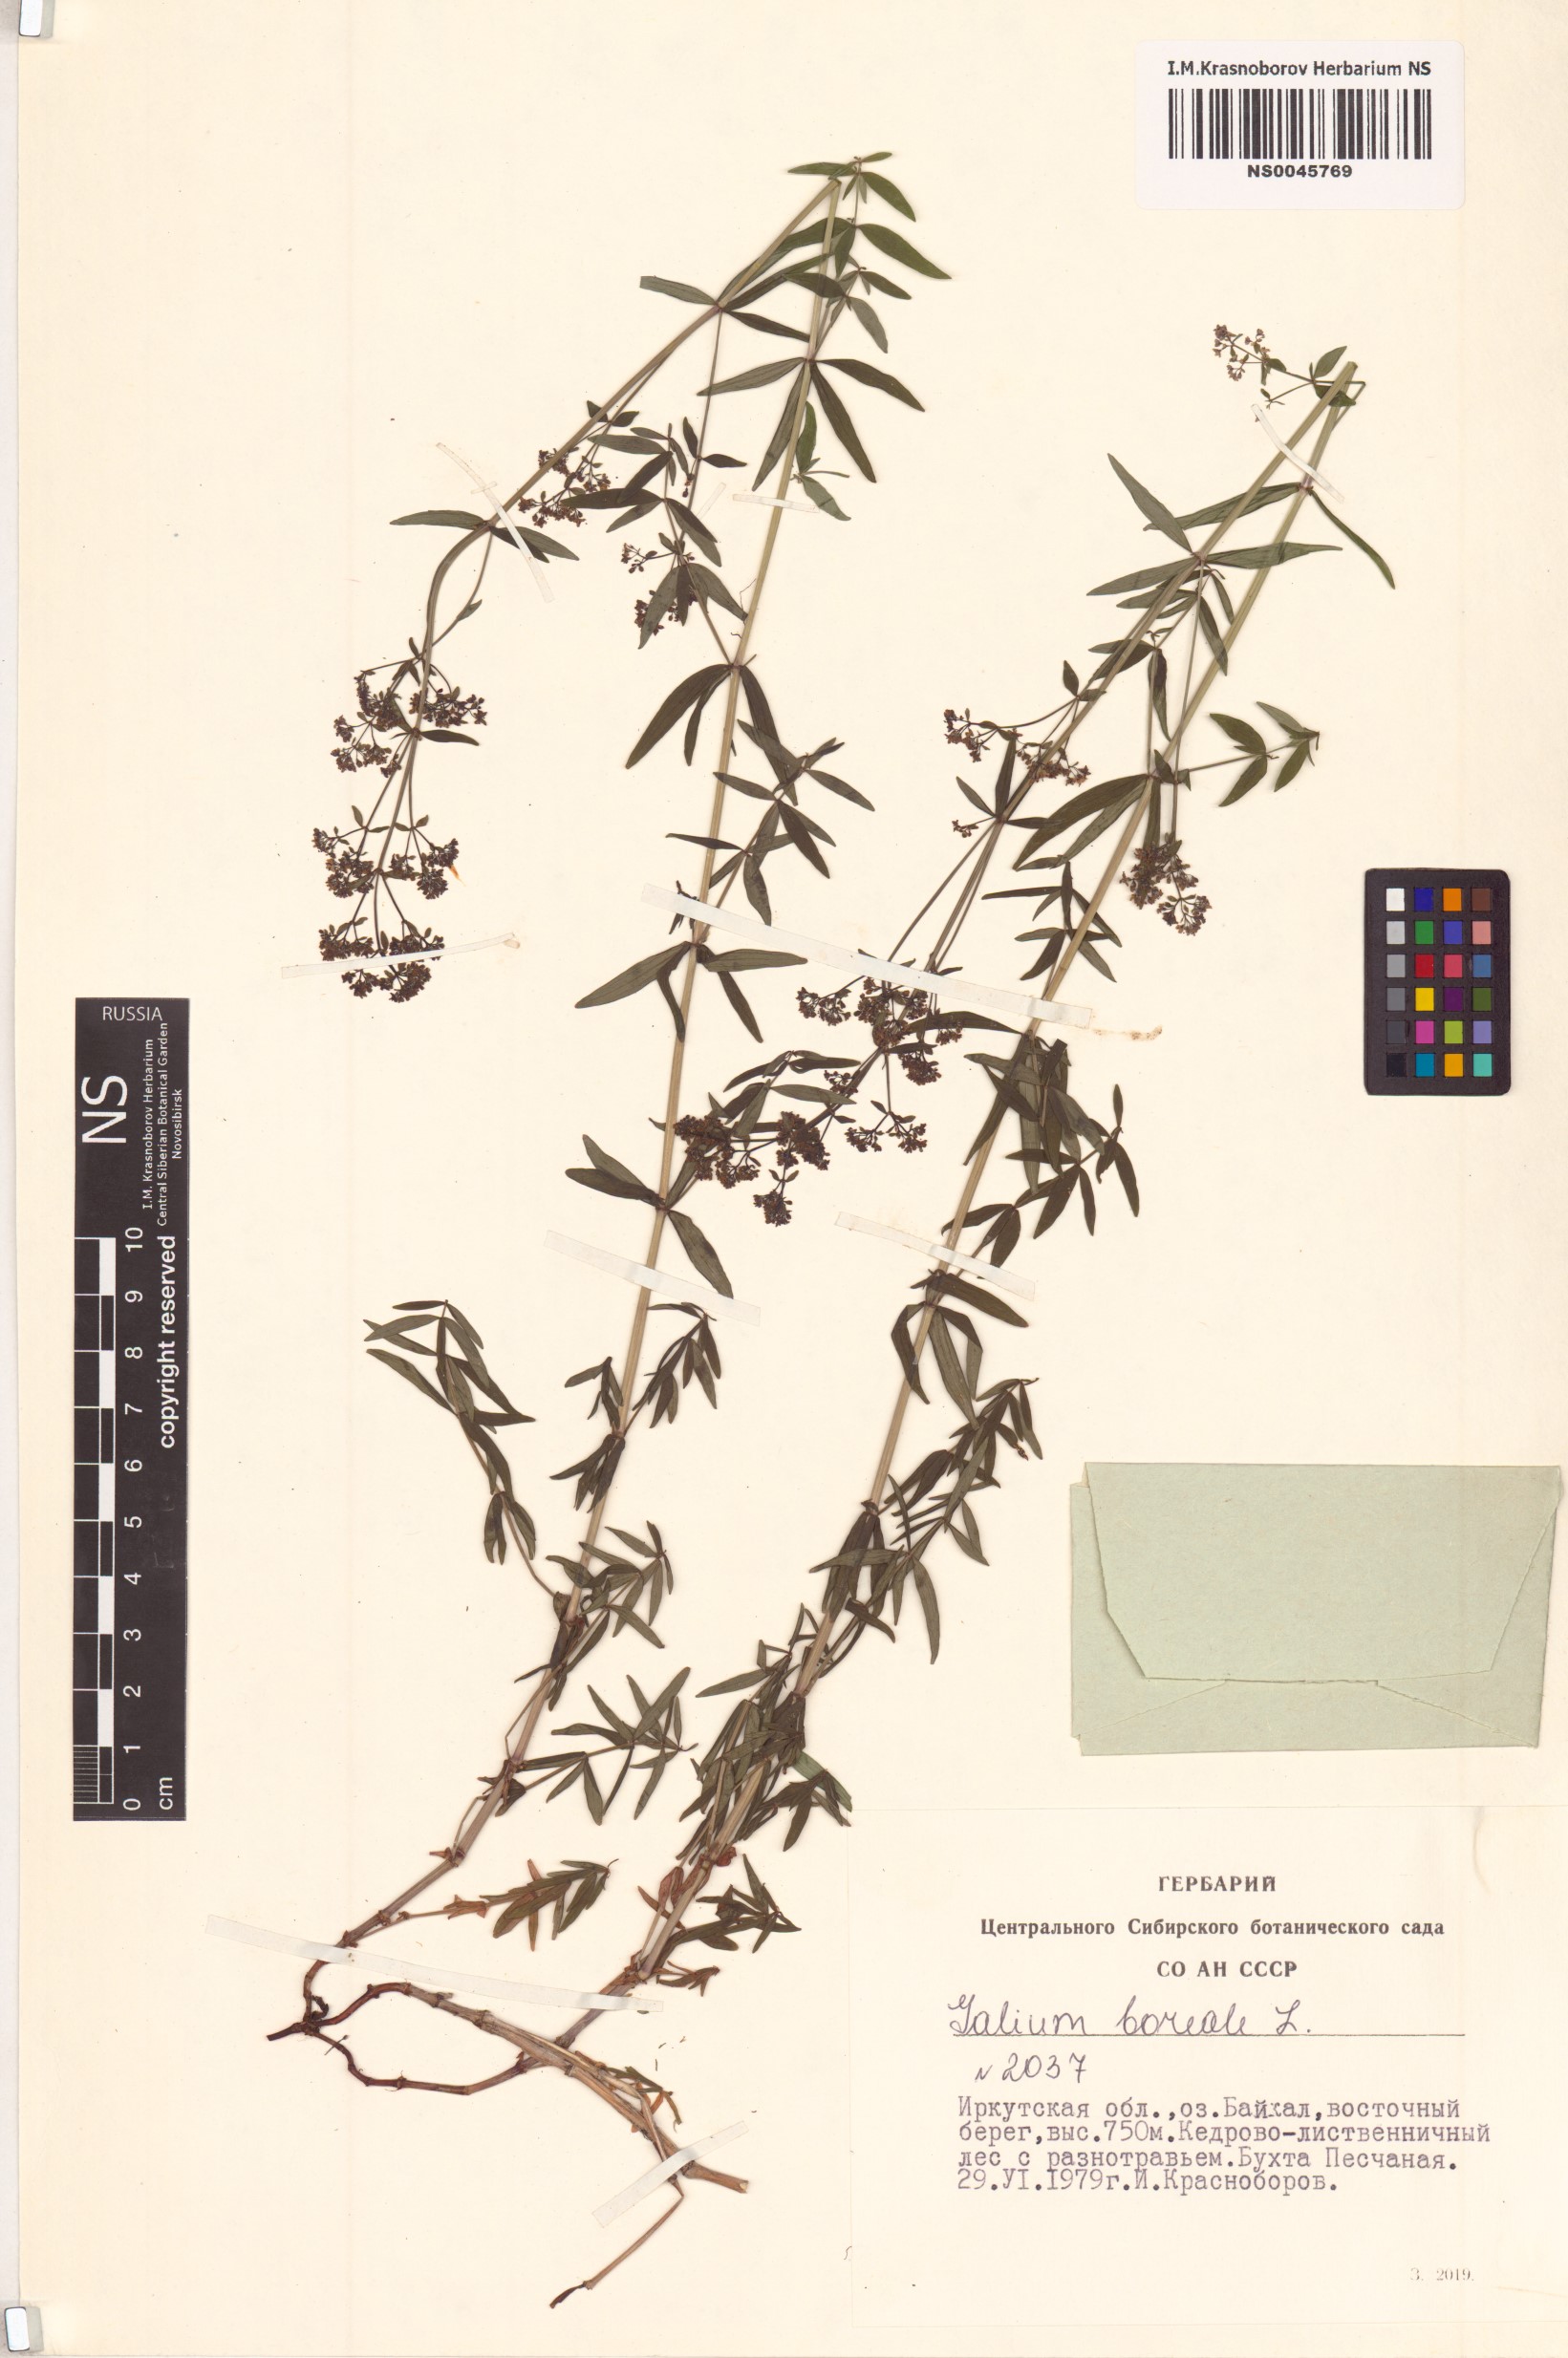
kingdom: Plantae
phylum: Tracheophyta
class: Magnoliopsida
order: Gentianales
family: Rubiaceae
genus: Galium
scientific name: Galium boreale
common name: Northern bedstraw
